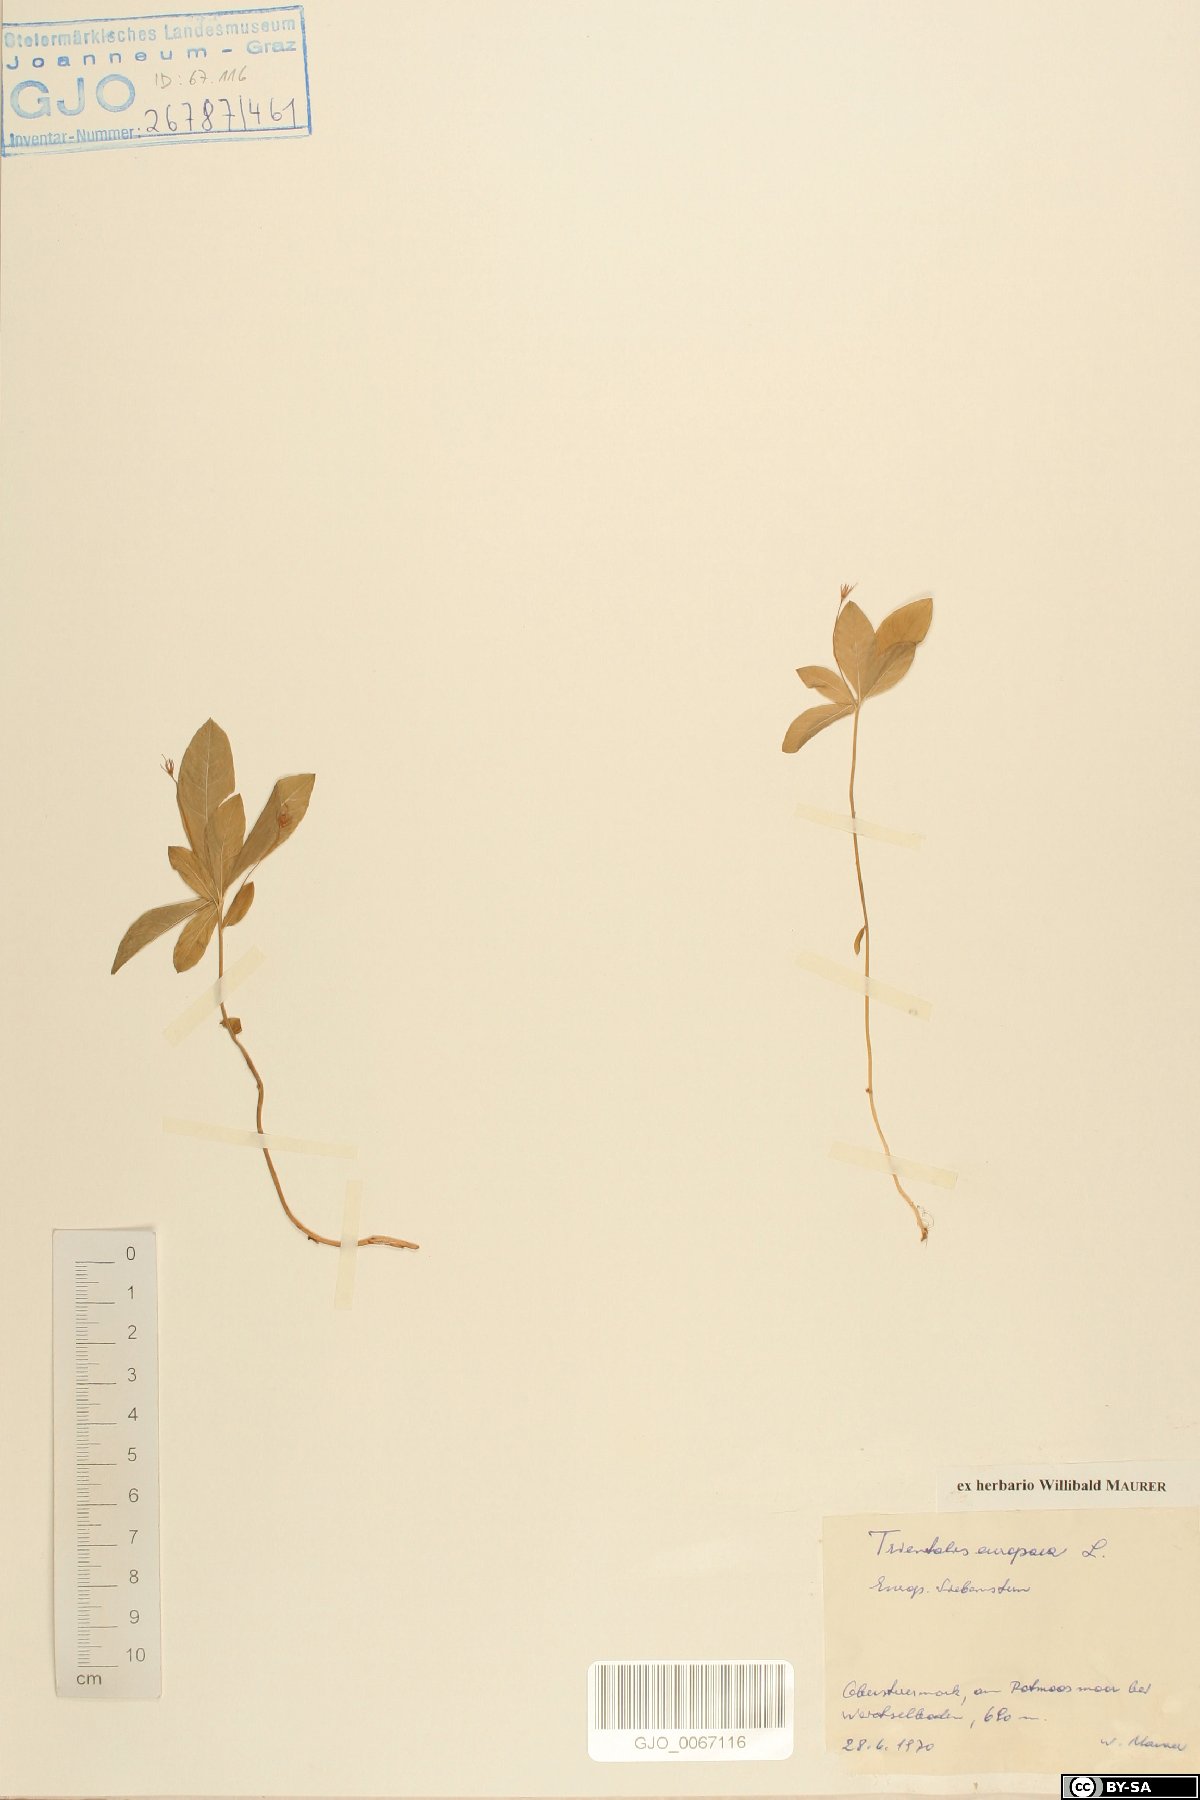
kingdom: Plantae
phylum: Tracheophyta
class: Magnoliopsida
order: Ericales
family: Primulaceae
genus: Lysimachia
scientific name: Lysimachia europaea
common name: Arctic starflower
